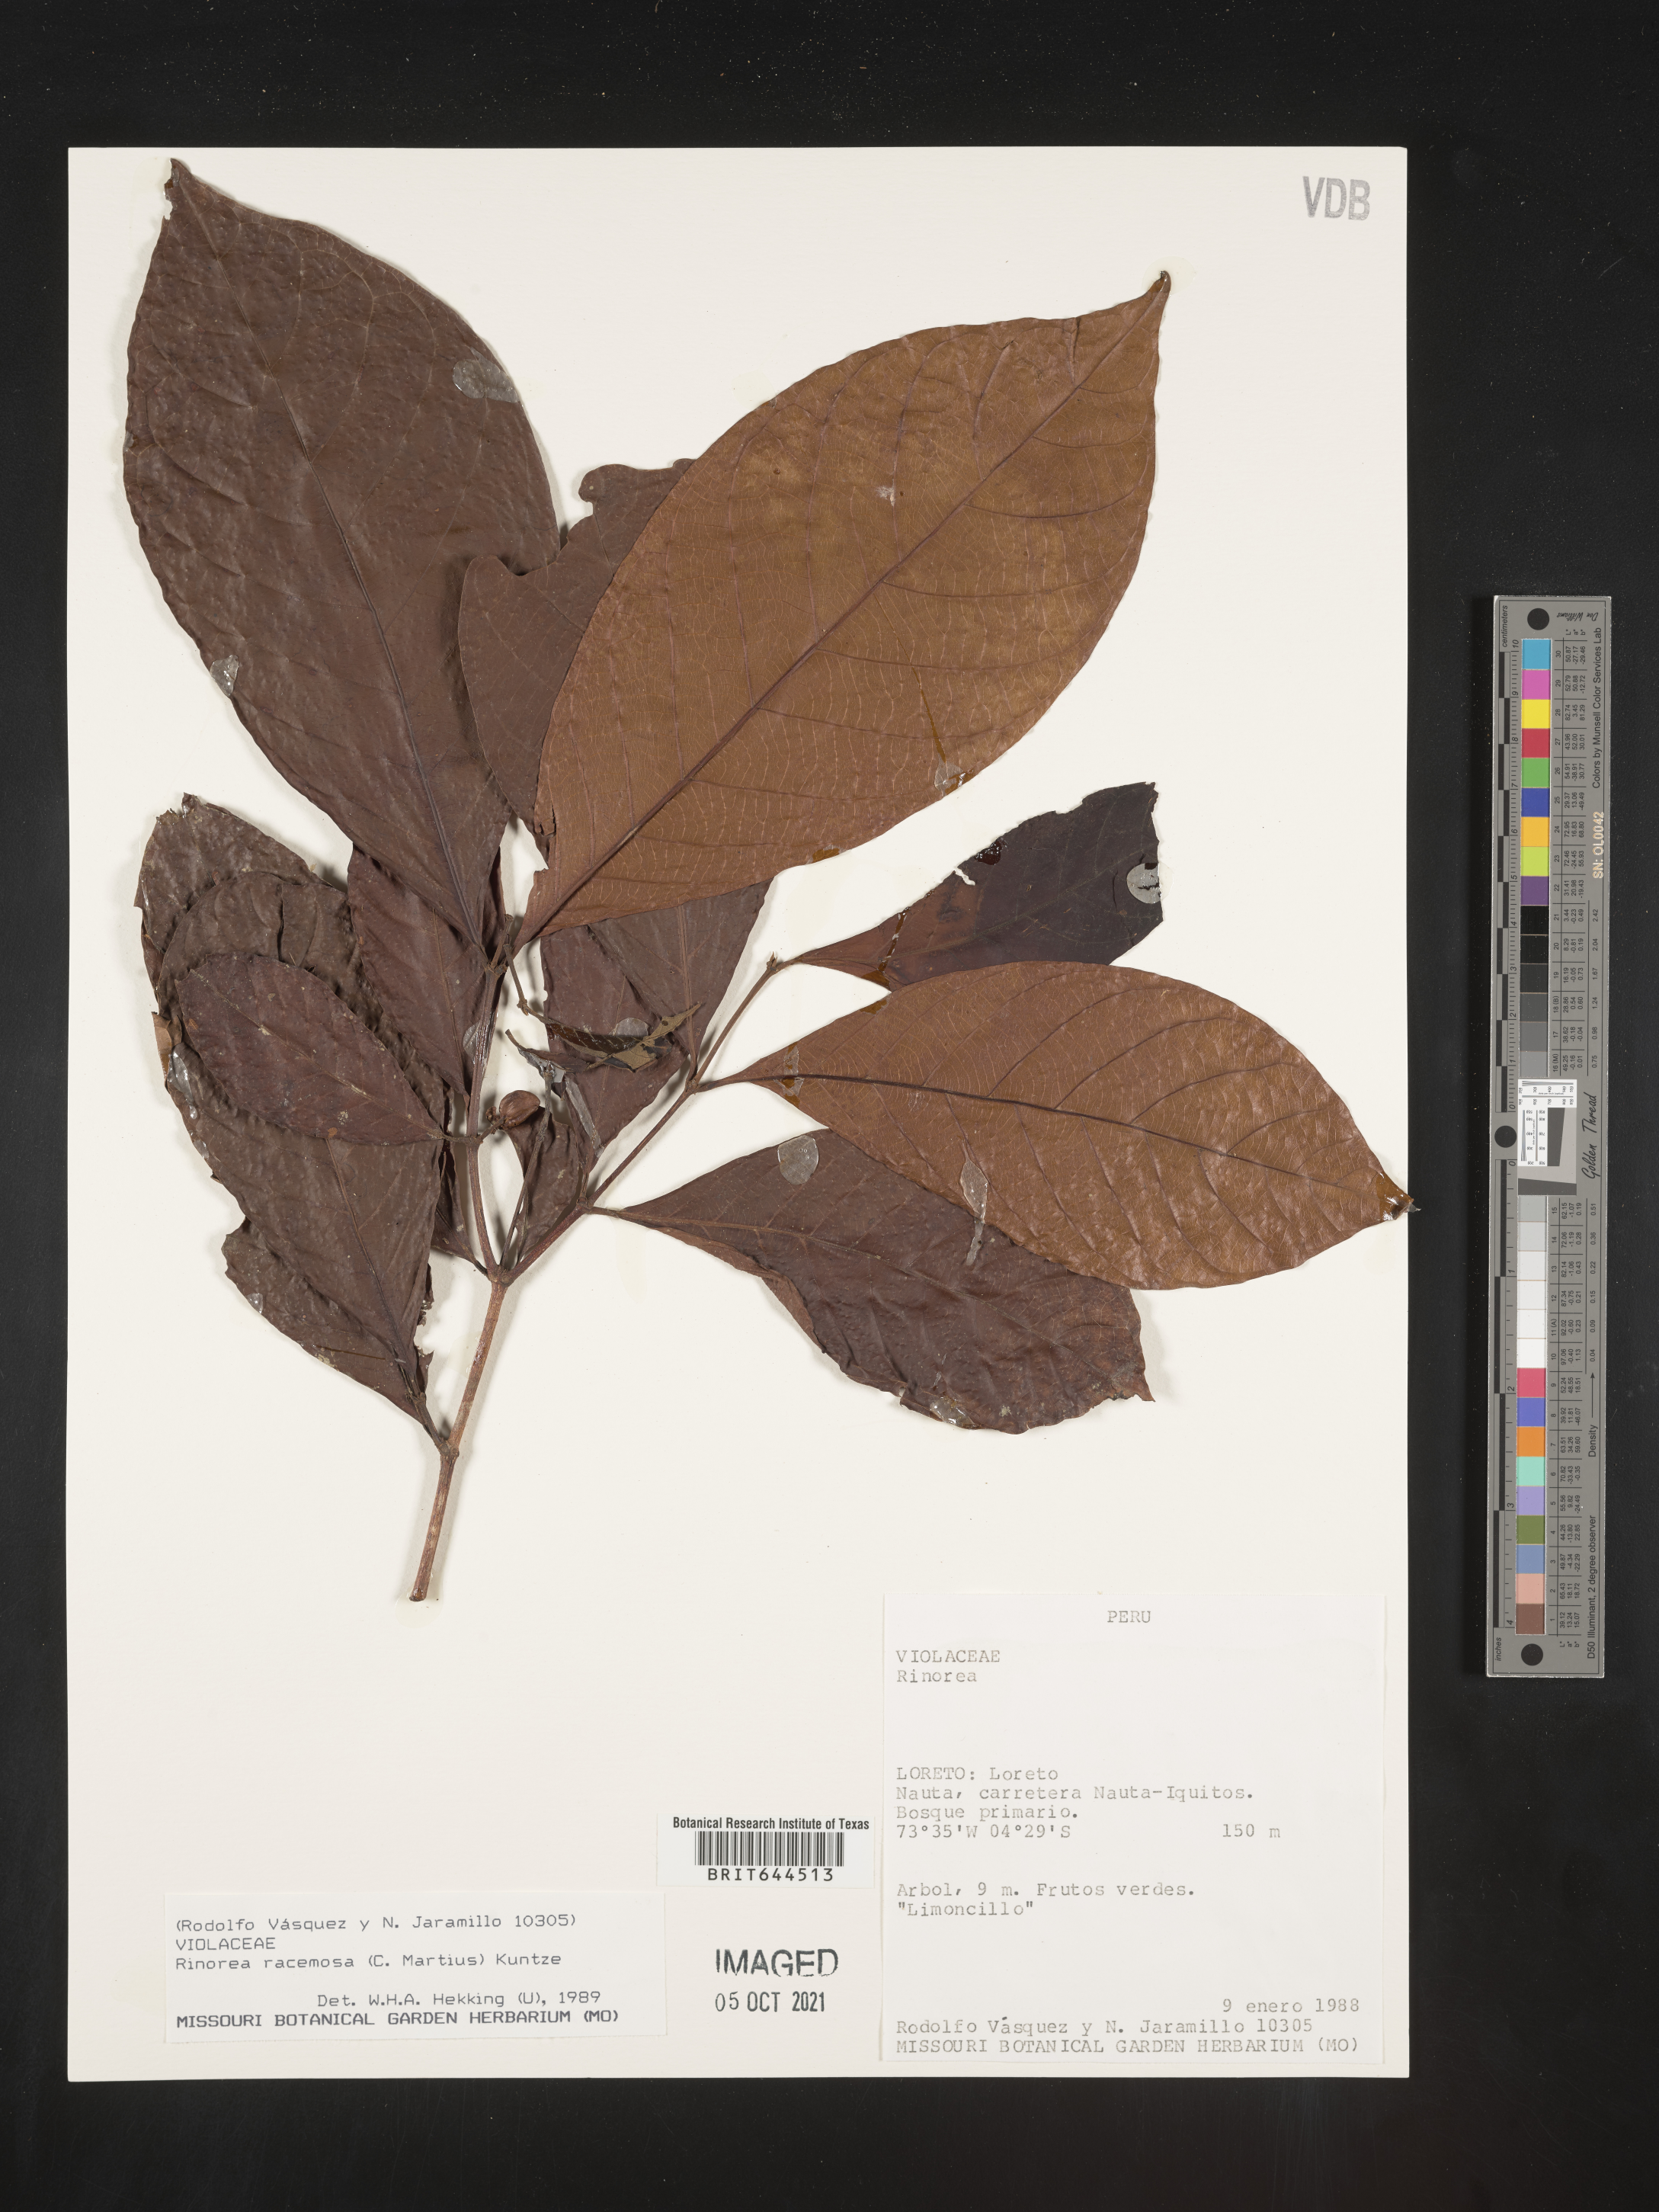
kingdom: Plantae
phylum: Tracheophyta
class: Magnoliopsida
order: Malpighiales
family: Violaceae
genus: Rinorea
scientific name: Rinorea
